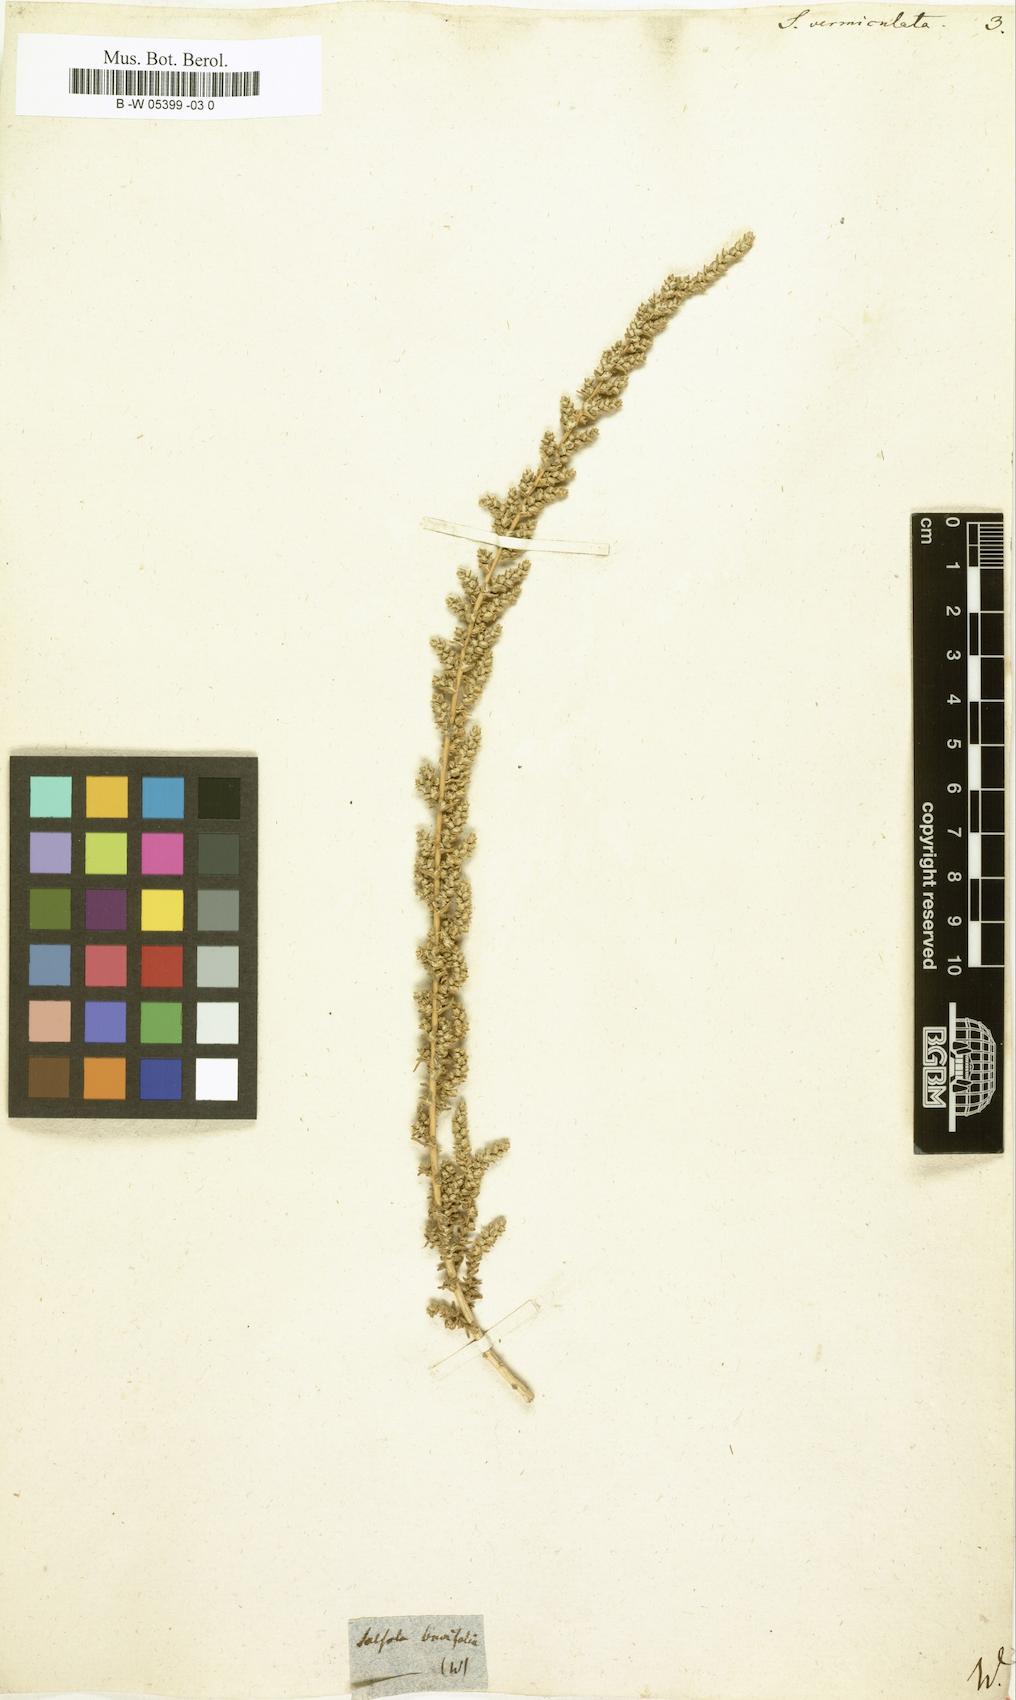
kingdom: Plantae
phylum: Tracheophyta
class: Magnoliopsida
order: Caryophyllales
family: Amaranthaceae
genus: Nitrosalsola
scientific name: Nitrosalsola vermiculata
